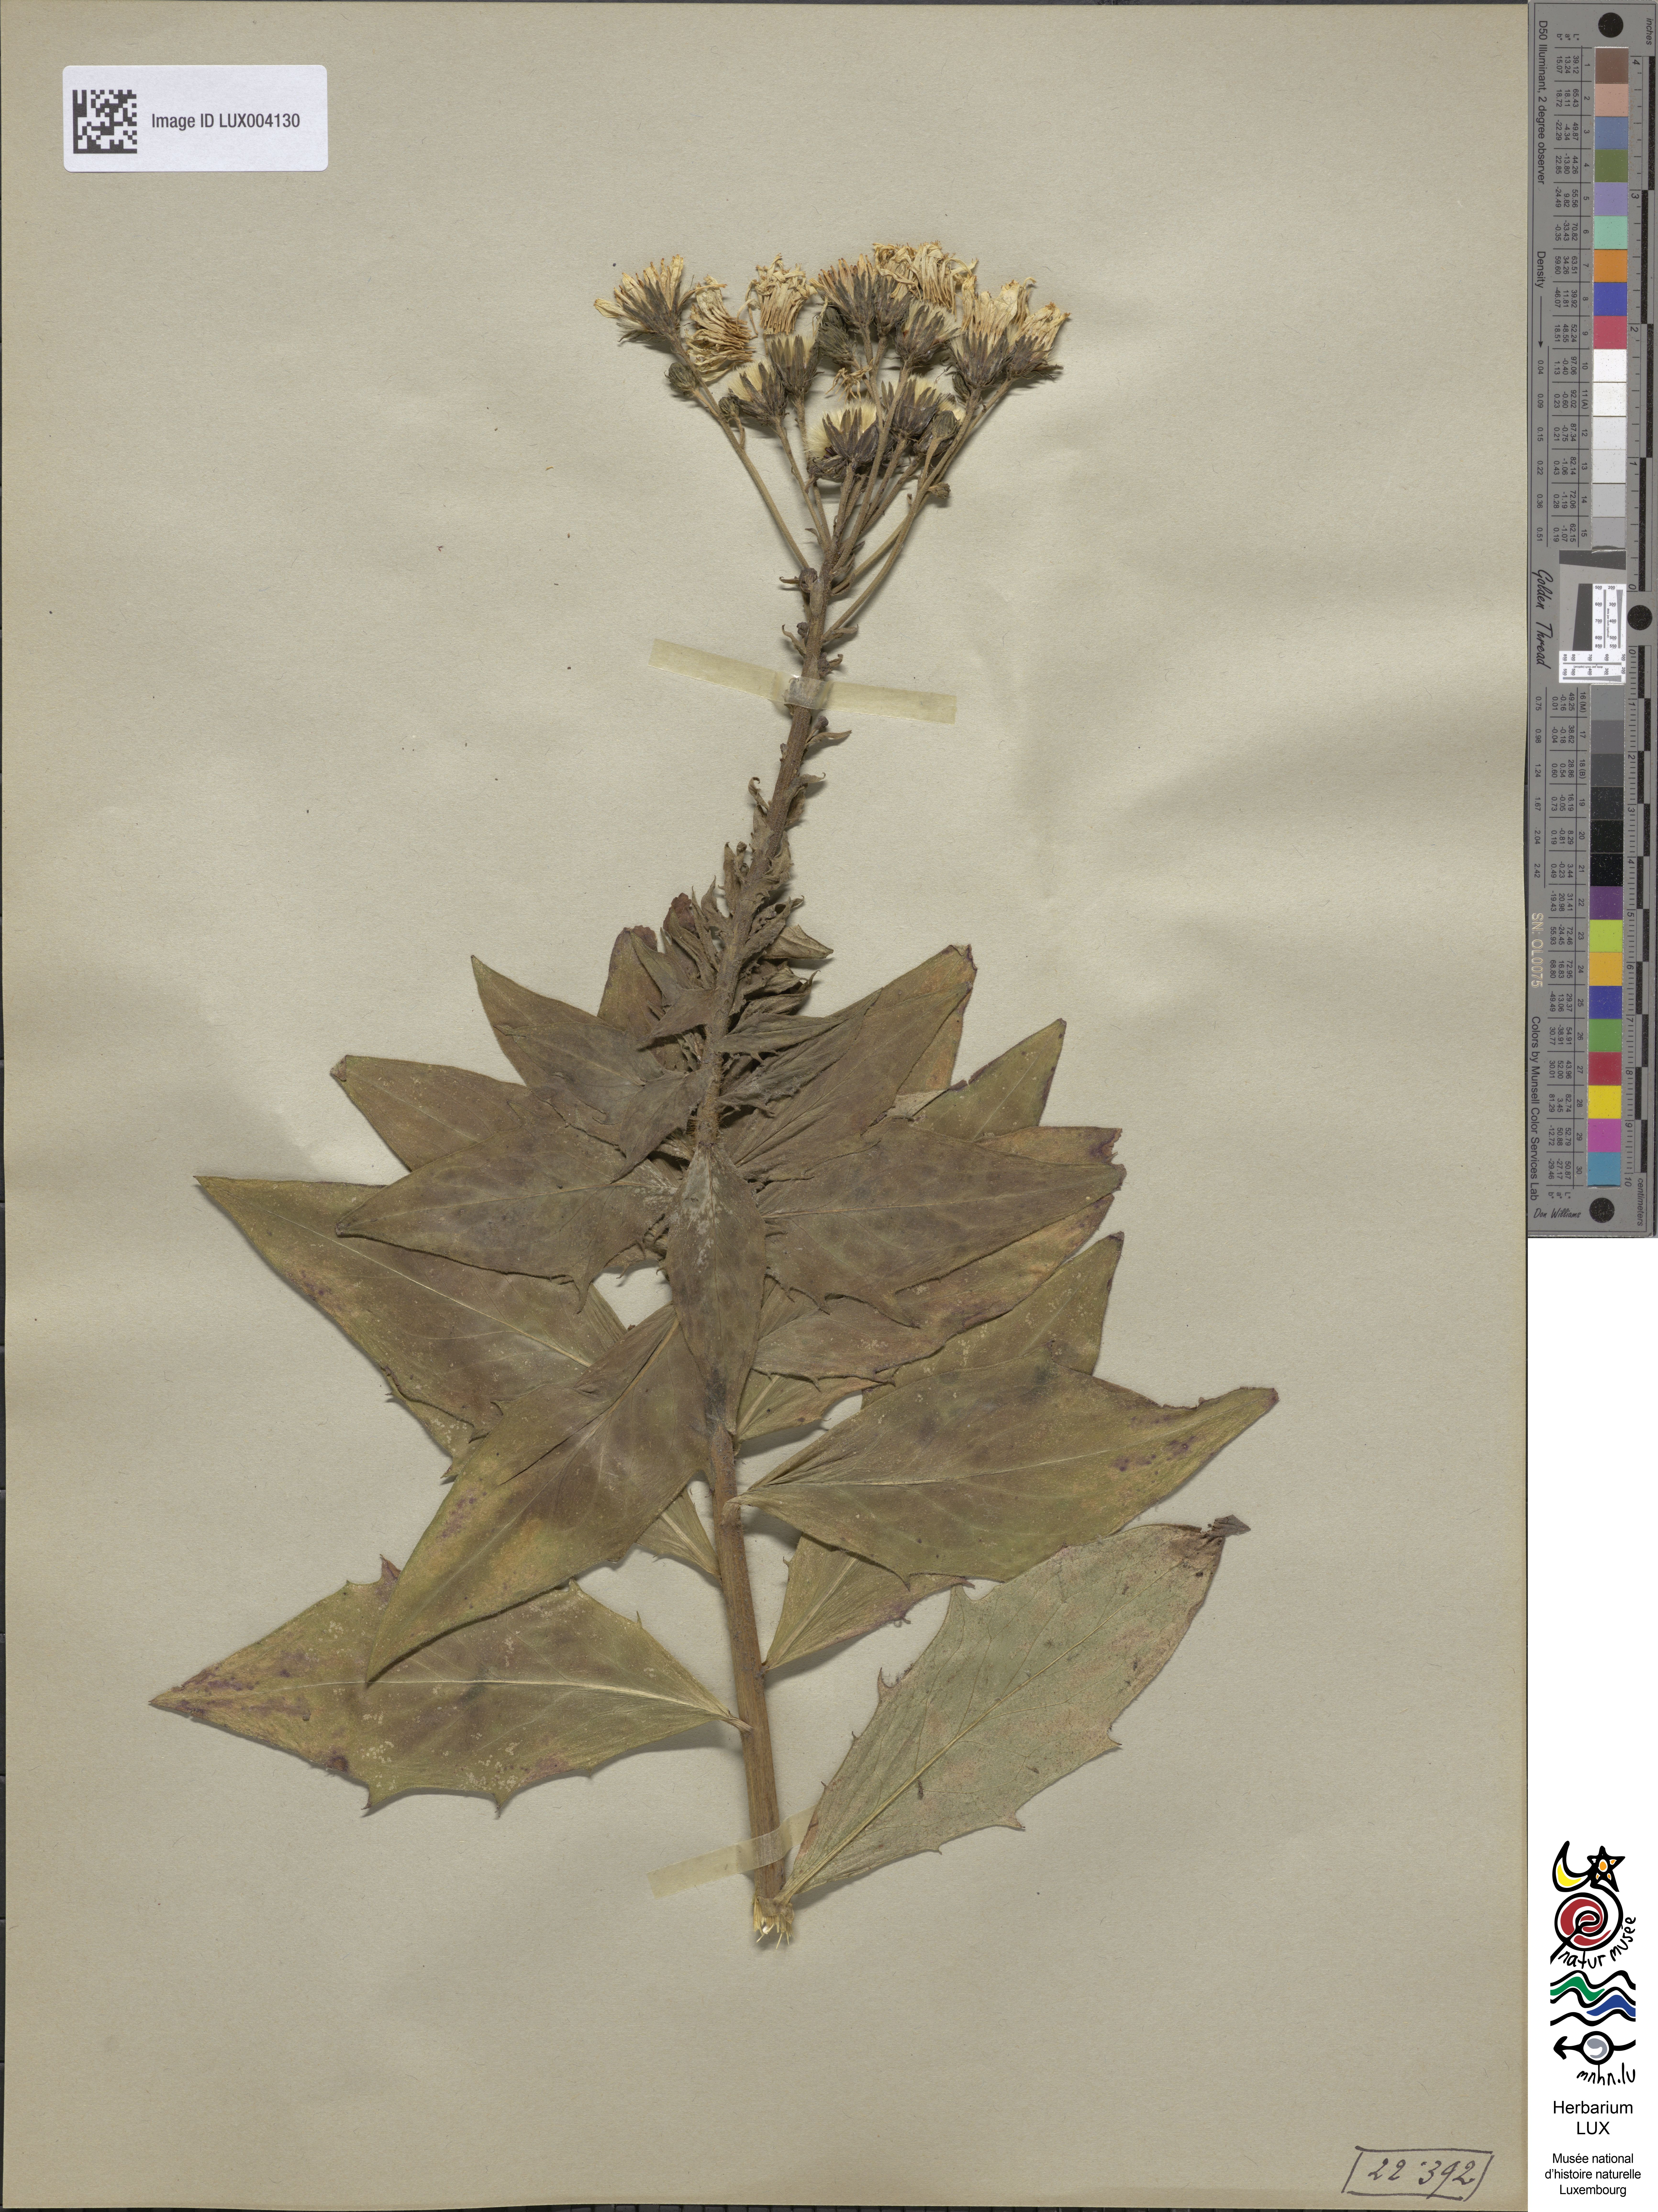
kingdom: Plantae
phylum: Tracheophyta
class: Magnoliopsida
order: Asterales
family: Asteraceae
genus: Hieracium
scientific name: Hieracium sabaudum
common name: New england hawkweed
